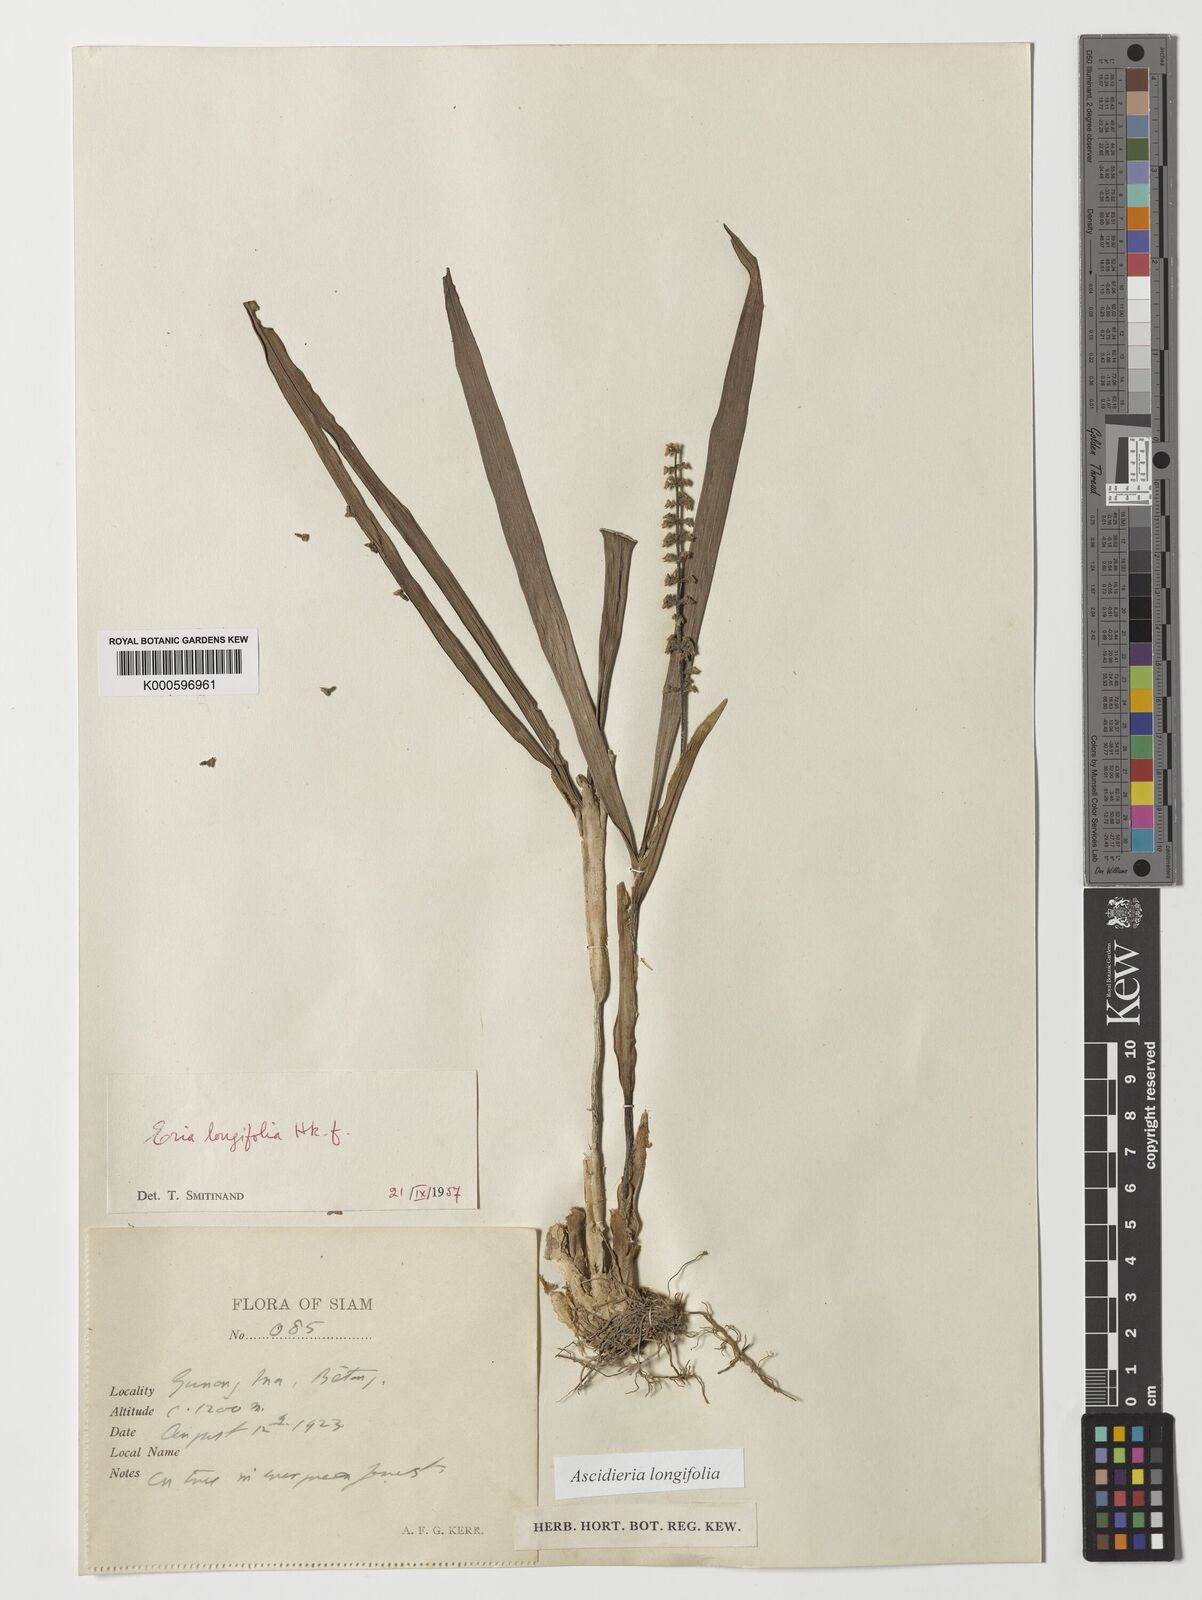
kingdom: Plantae
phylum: Tracheophyta
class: Liliopsida
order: Asparagales
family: Orchidaceae
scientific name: Orchidaceae
